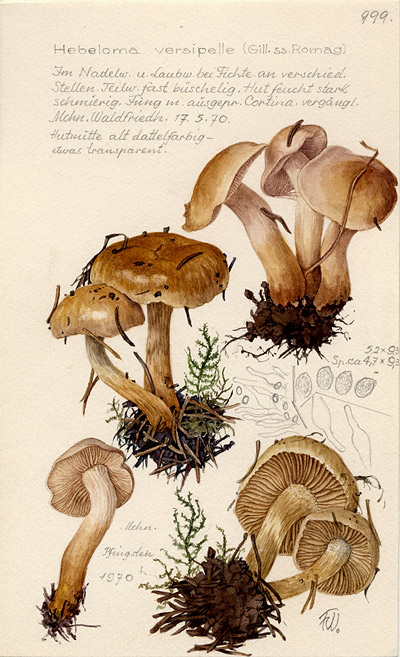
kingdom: Fungi
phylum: Basidiomycota
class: Agaricomycetes
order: Agaricales
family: Hymenogastraceae
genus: Hebeloma
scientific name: Hebeloma versipelle
